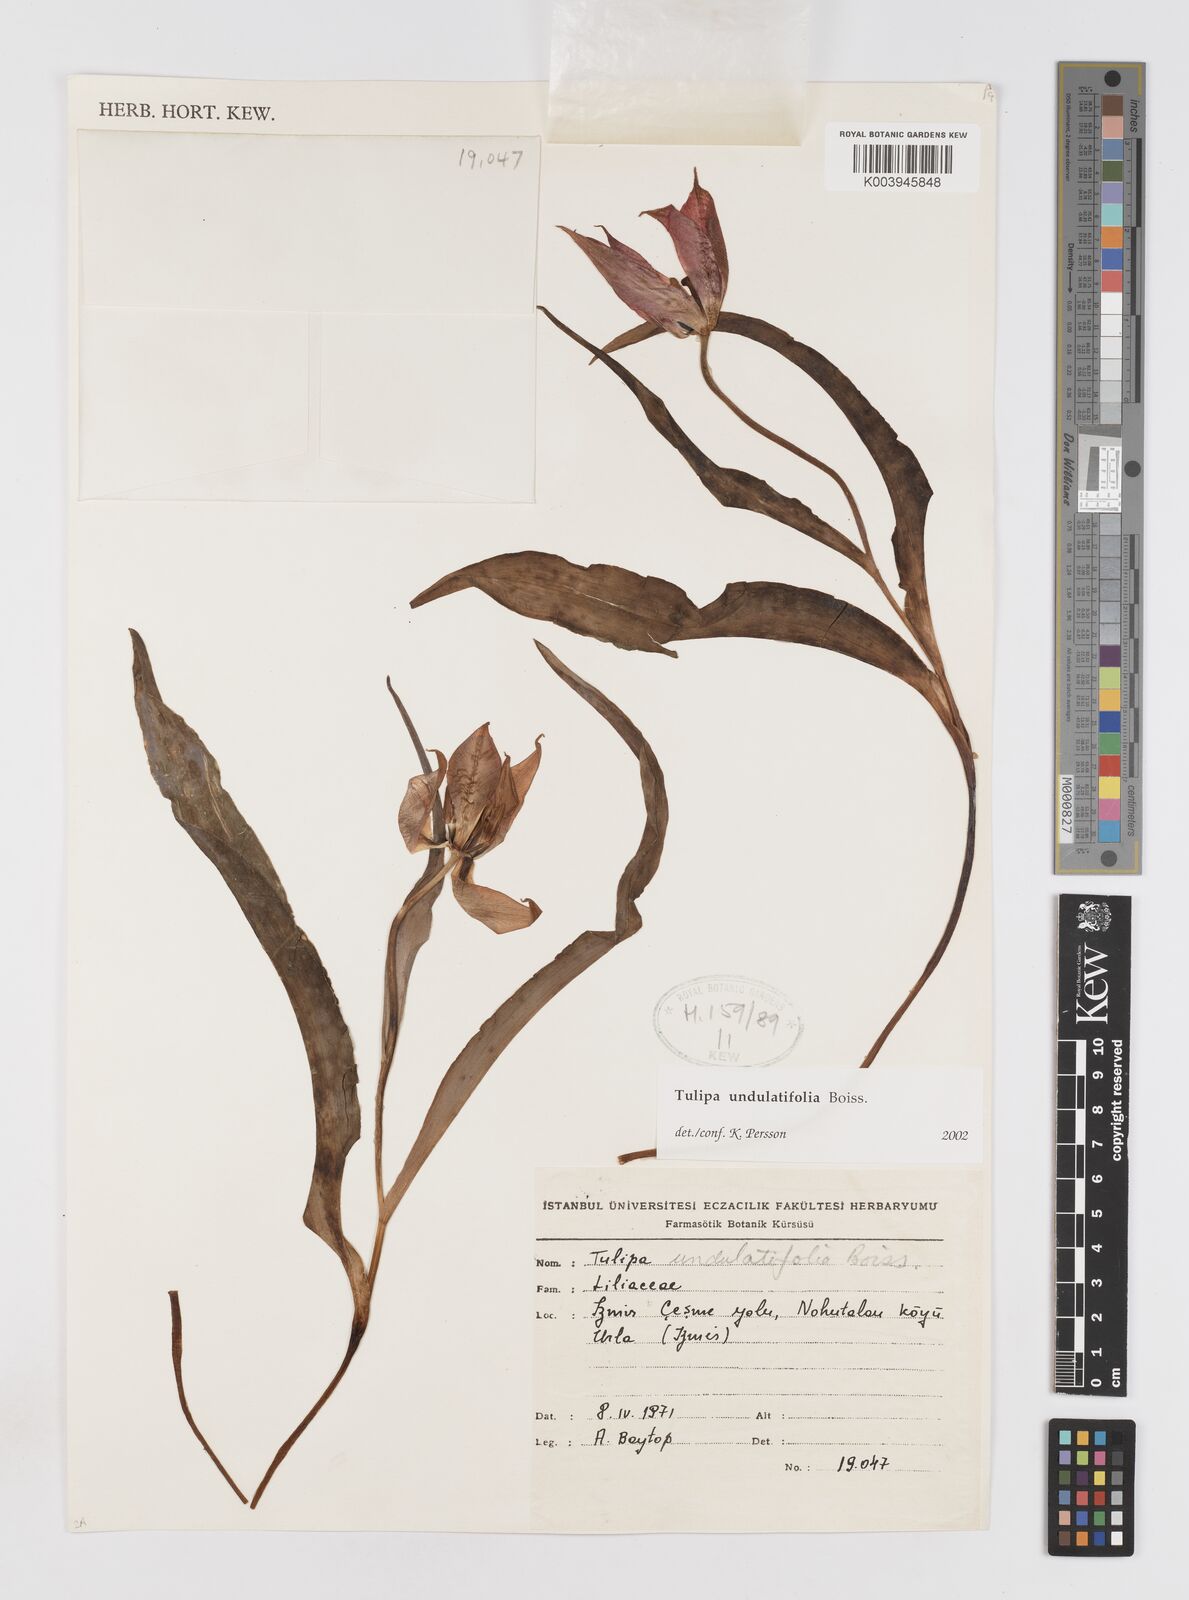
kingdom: Plantae
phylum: Tracheophyta
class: Liliopsida
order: Liliales
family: Liliaceae
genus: Tulipa
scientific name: Tulipa undulatifolia
